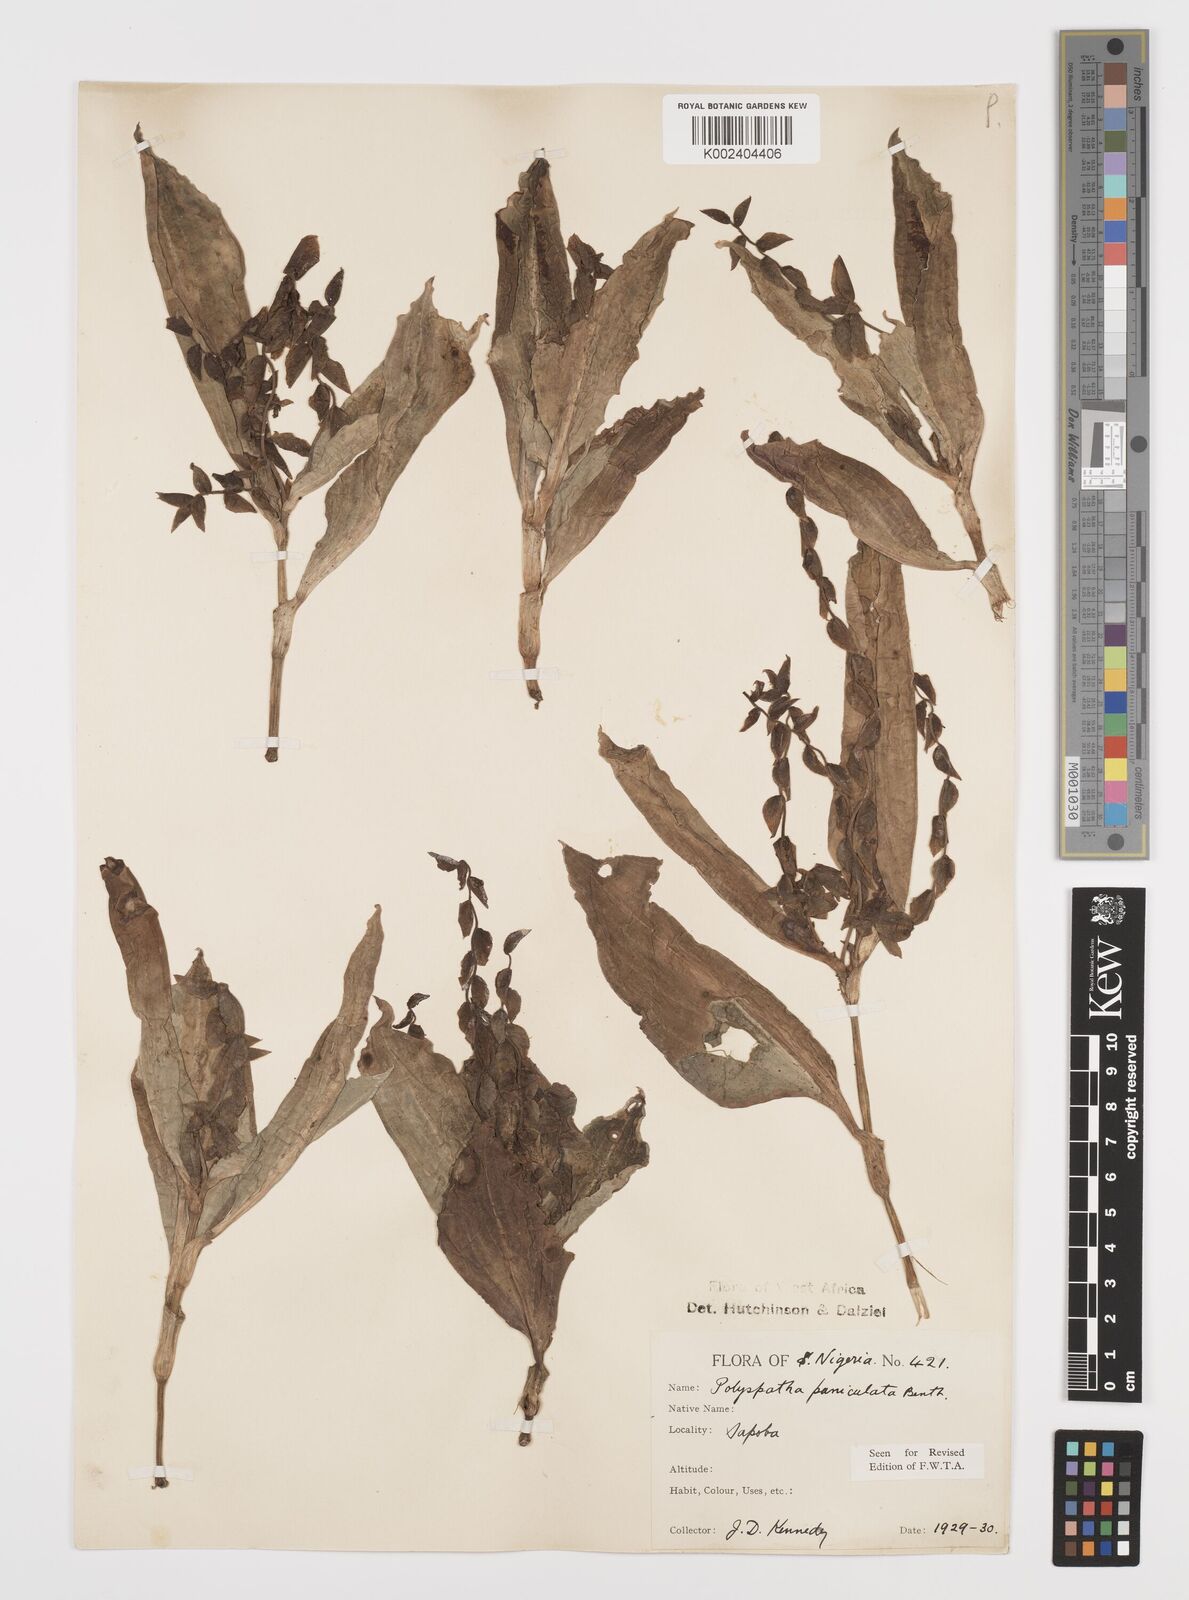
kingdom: Plantae
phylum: Tracheophyta
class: Liliopsida
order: Commelinales
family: Commelinaceae
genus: Polyspatha
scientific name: Polyspatha paniculata
